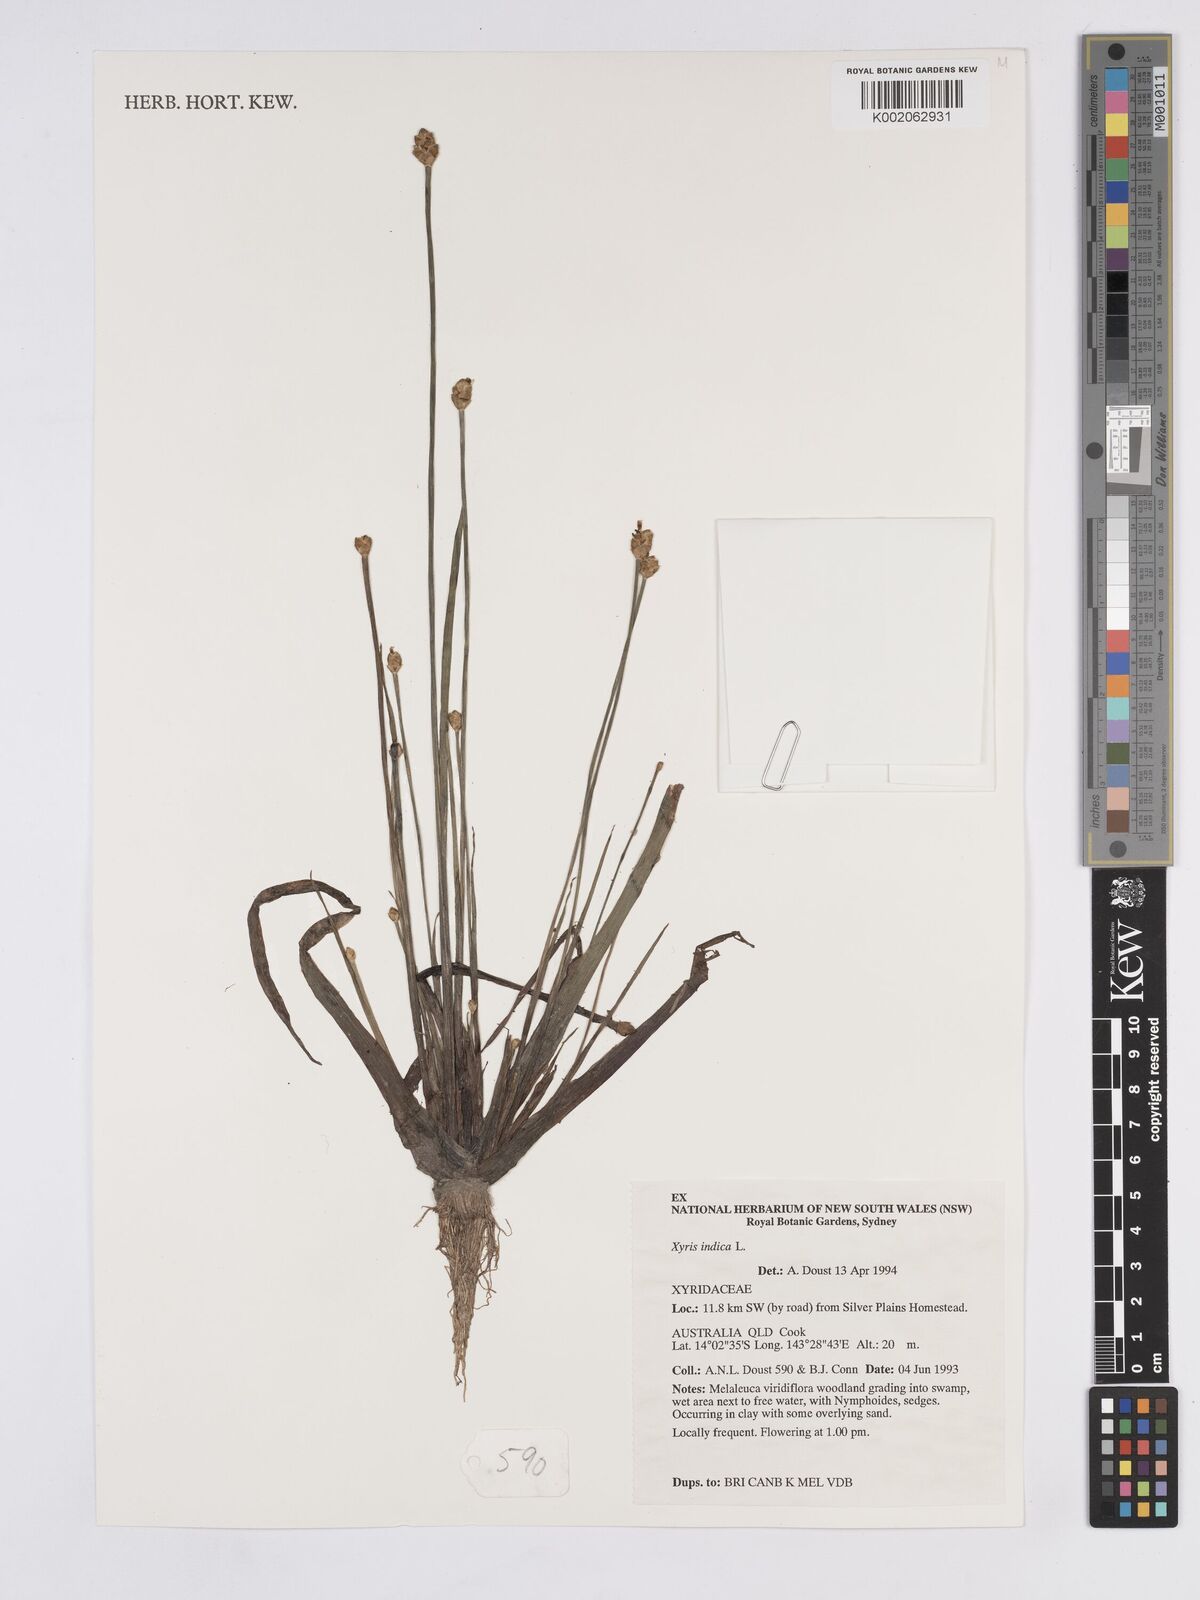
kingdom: Plantae
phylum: Tracheophyta
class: Liliopsida
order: Poales
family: Xyridaceae
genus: Xyris
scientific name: Xyris indica
